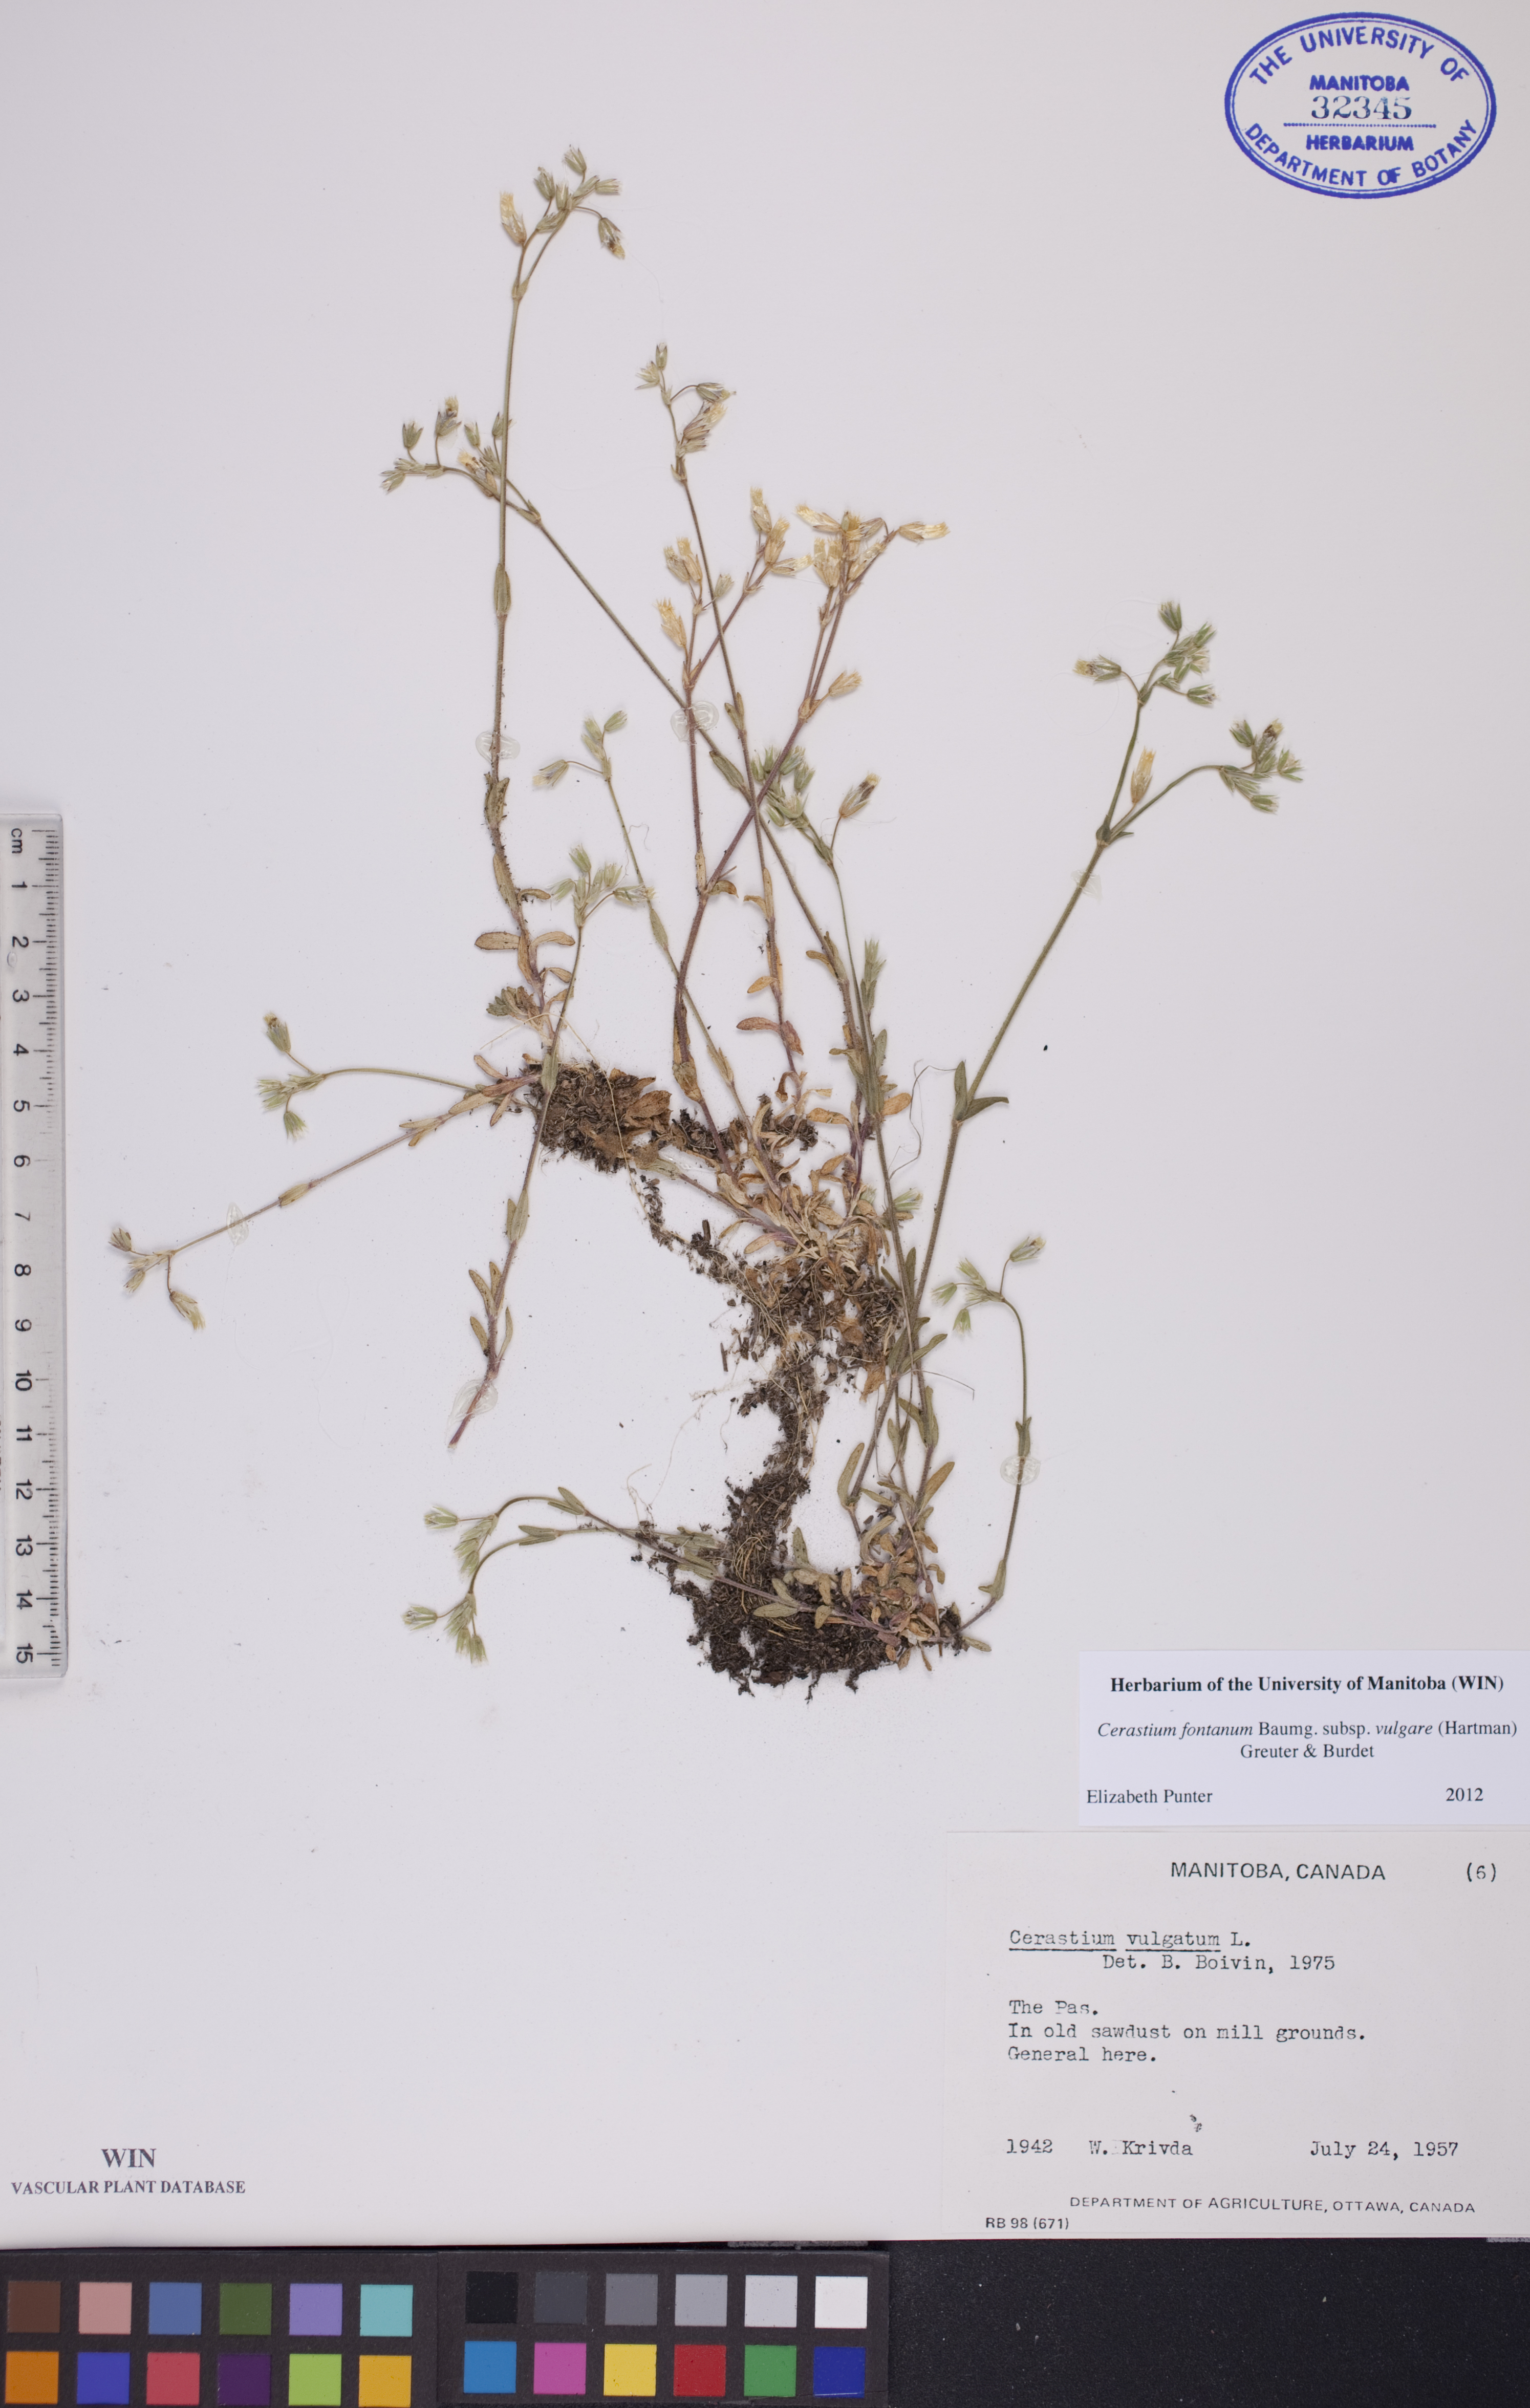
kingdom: Plantae
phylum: Tracheophyta
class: Magnoliopsida
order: Caryophyllales
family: Caryophyllaceae
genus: Cerastium
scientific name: Cerastium holosteoides
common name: Big chickweed
